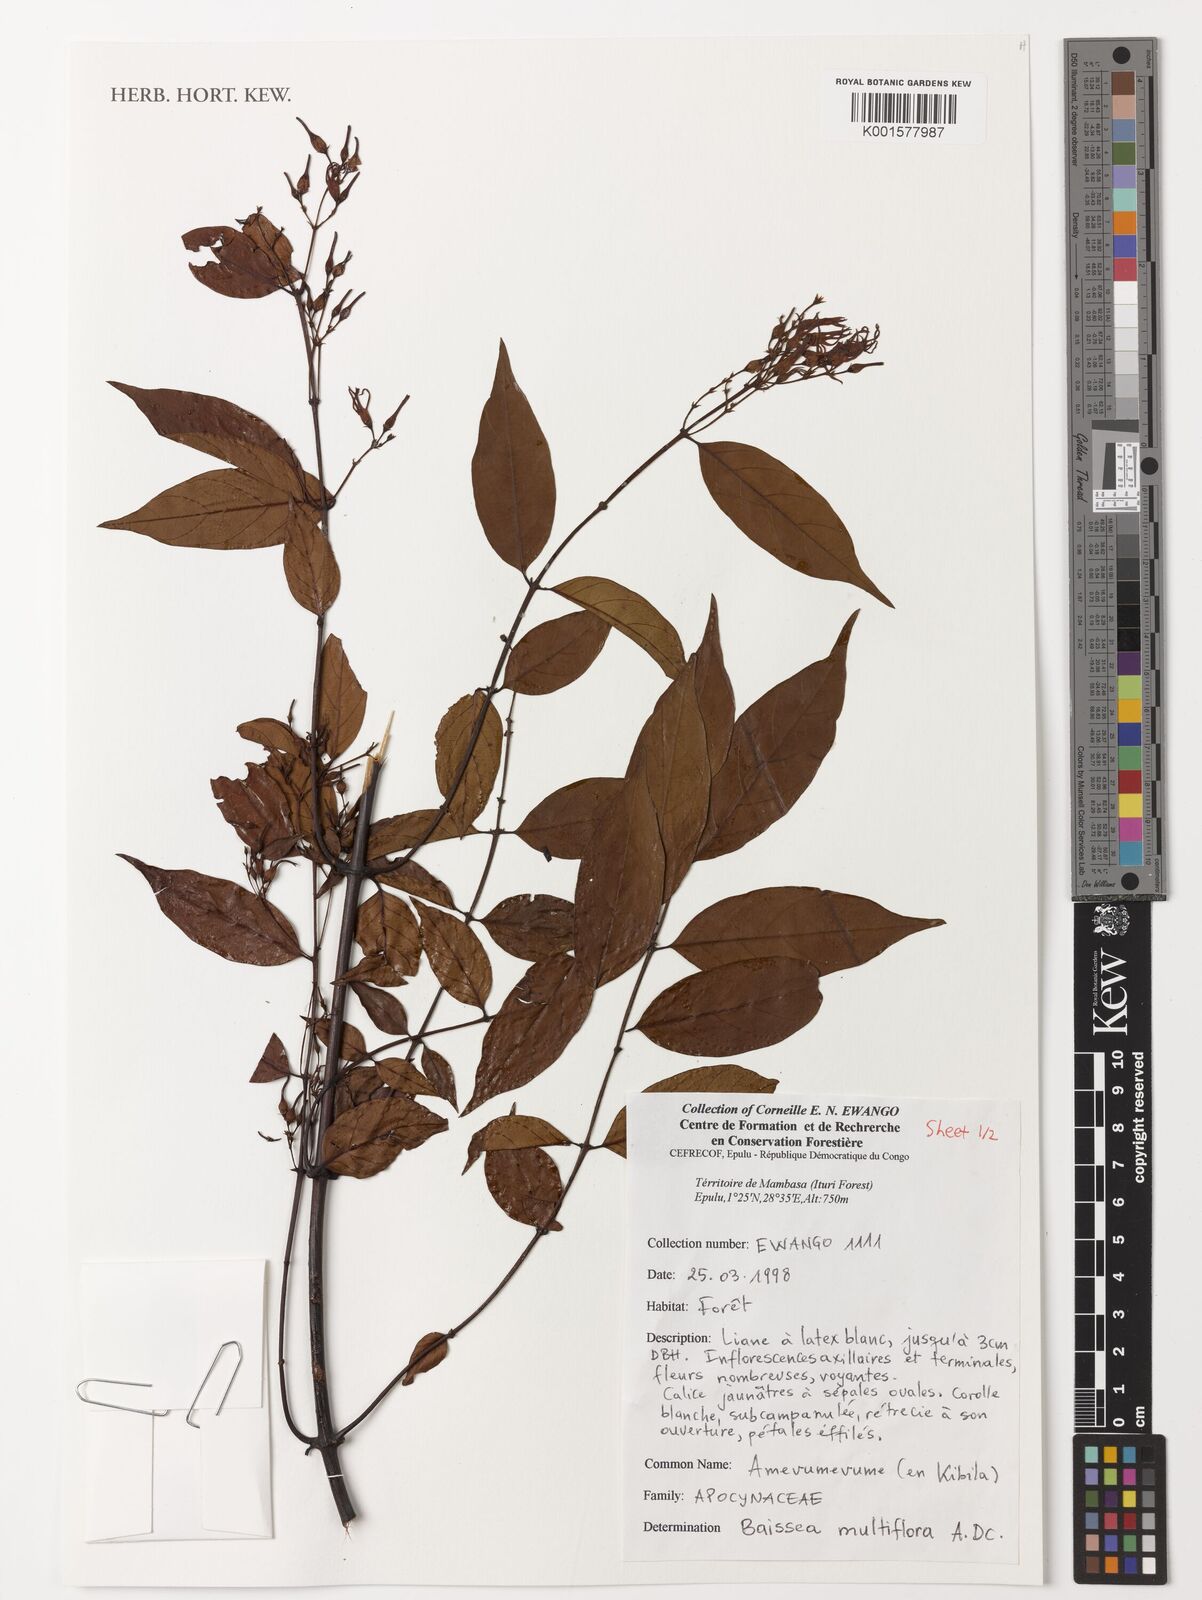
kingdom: Plantae
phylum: Tracheophyta
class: Magnoliopsida
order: Gentianales
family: Apocynaceae
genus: Baissea
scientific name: Baissea multiflora
